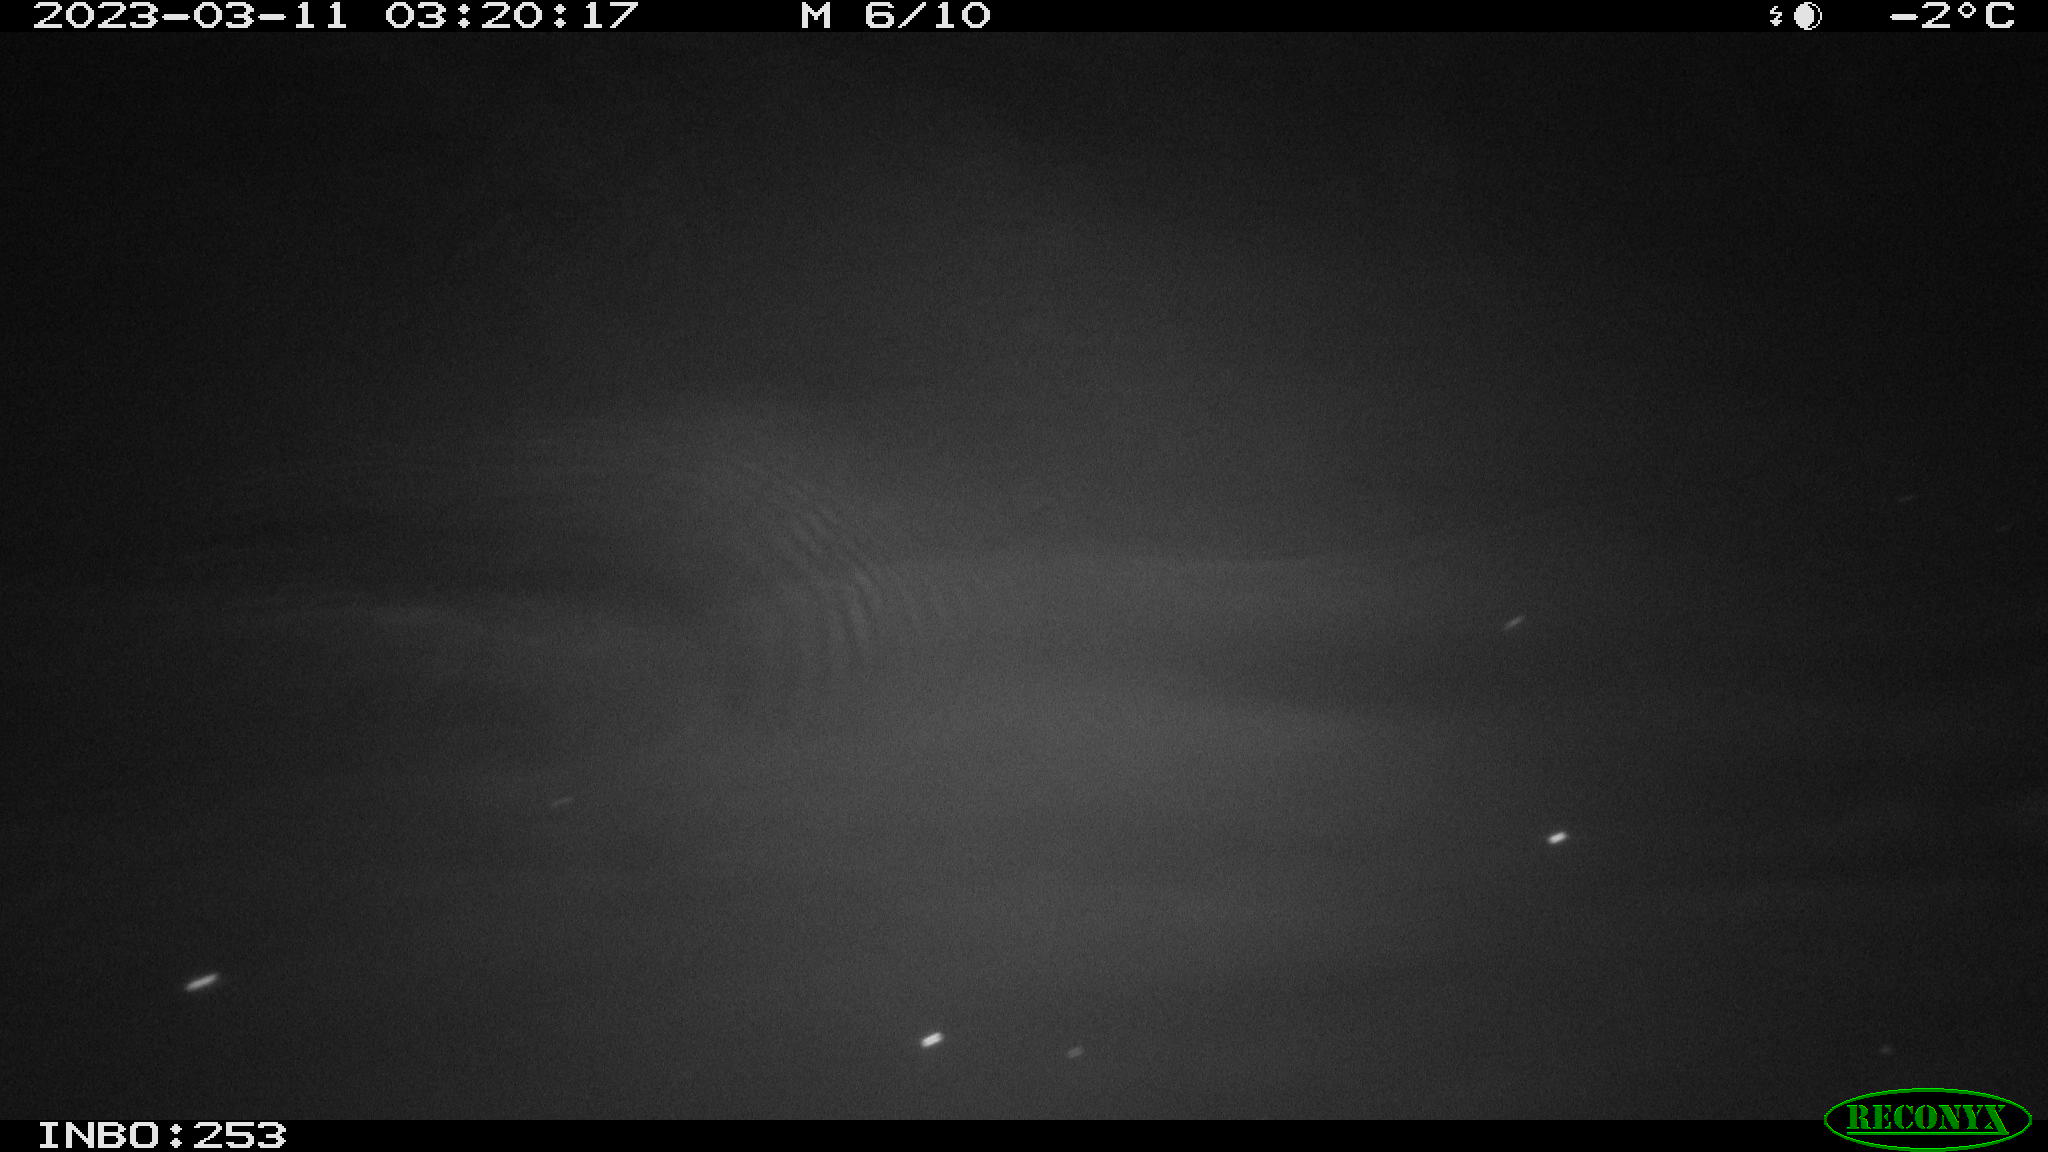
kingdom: Animalia
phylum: Chordata
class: Aves
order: Anseriformes
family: Anatidae
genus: Anas
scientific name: Anas platyrhynchos
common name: Mallard
